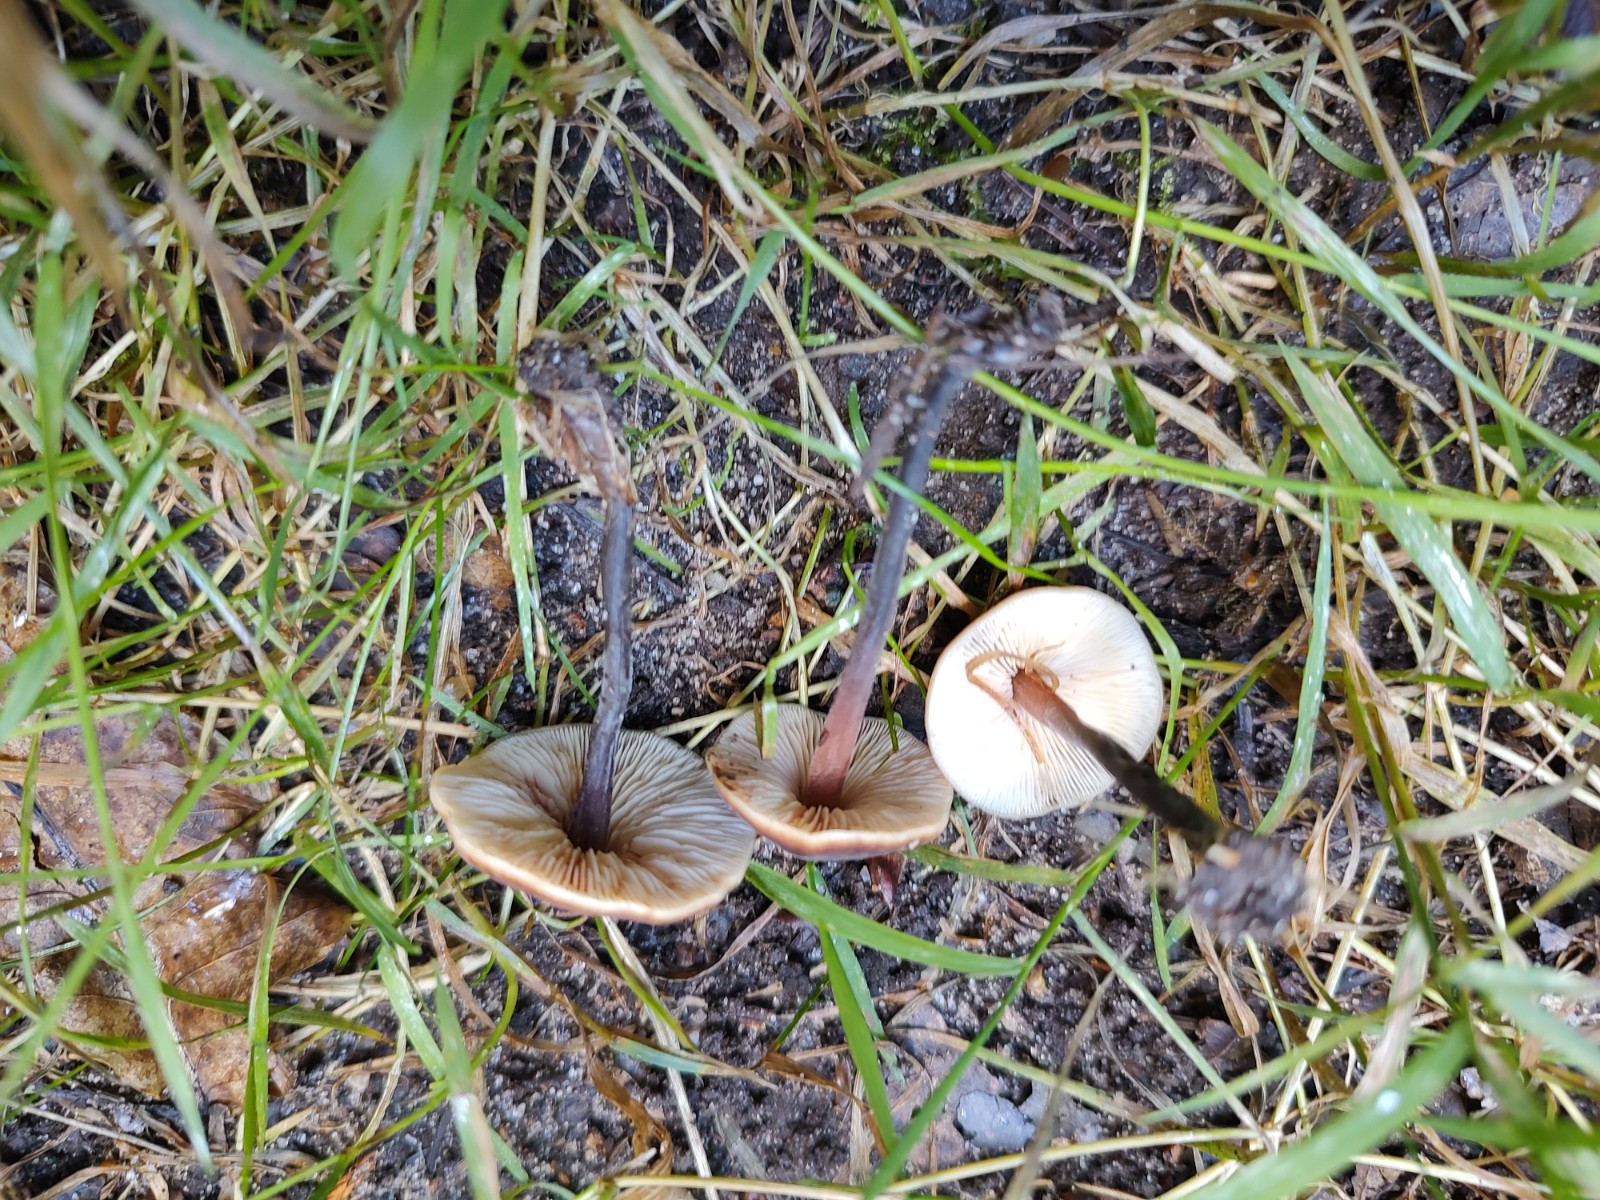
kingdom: Fungi
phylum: Basidiomycota
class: Agaricomycetes
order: Agaricales
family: Macrocystidiaceae
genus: Macrocystidia
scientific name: Macrocystidia cucumis
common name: agurkehat
